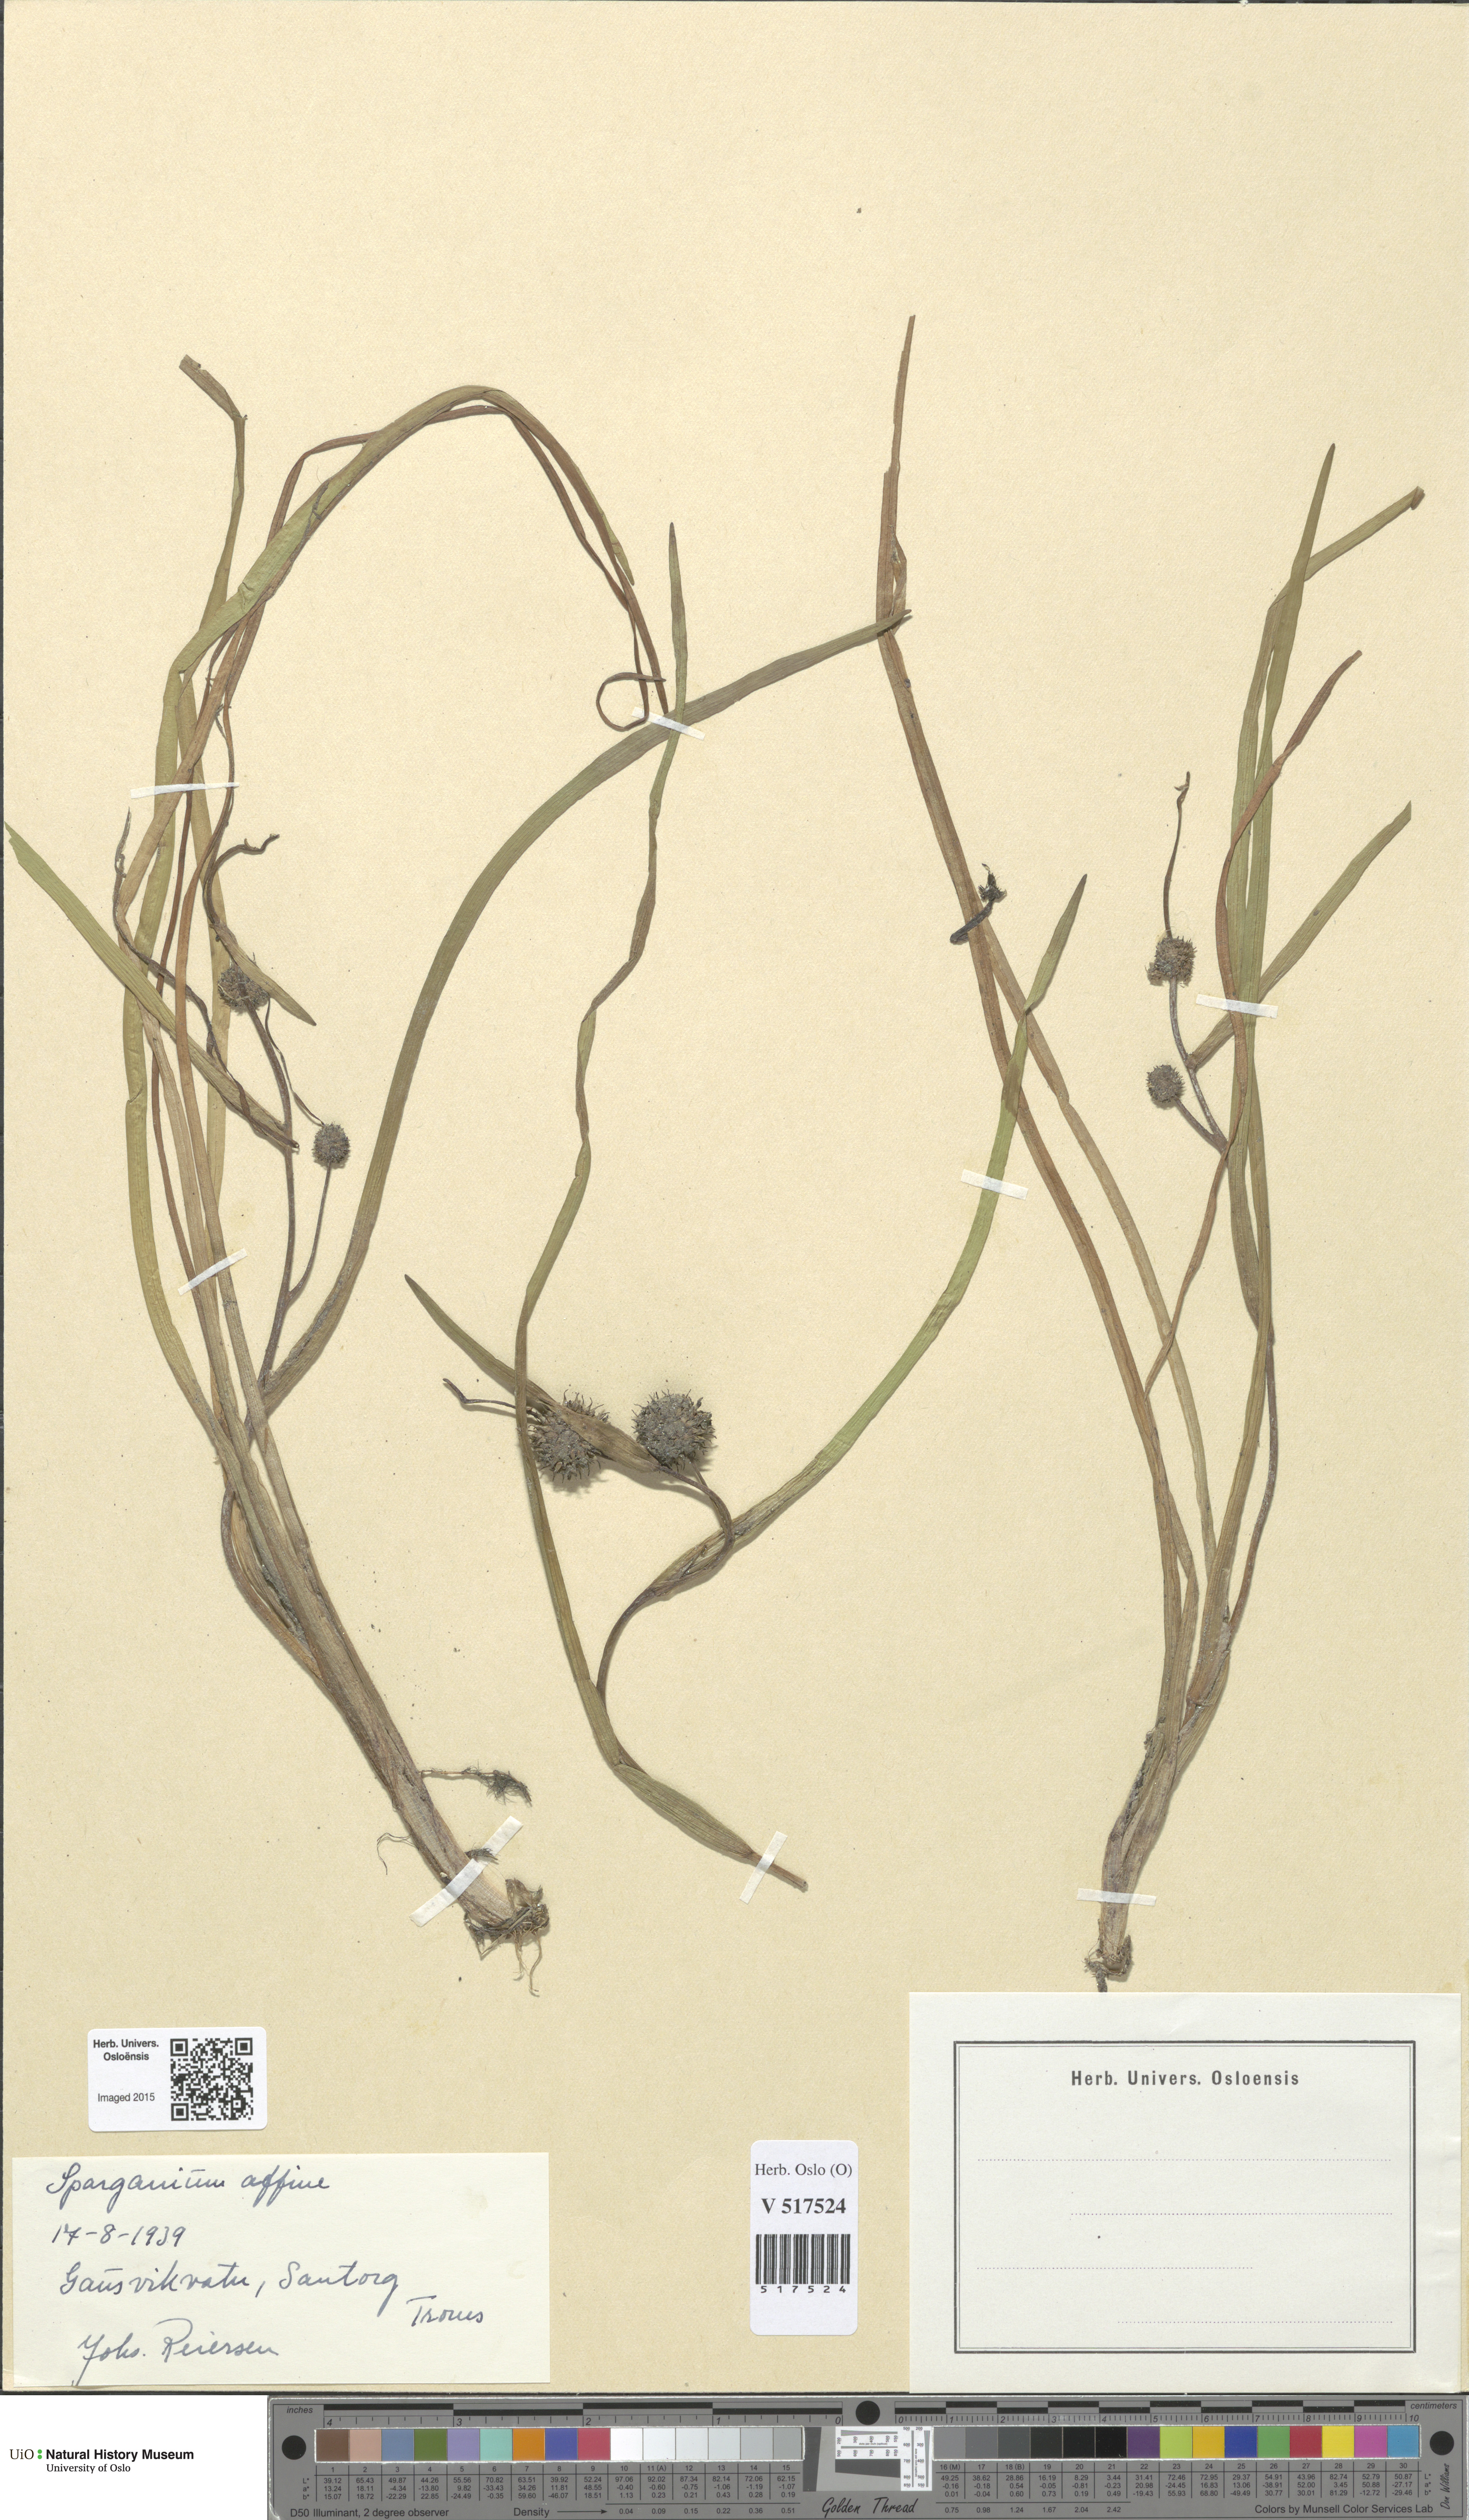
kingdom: Plantae
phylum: Tracheophyta
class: Liliopsida
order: Poales
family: Typhaceae
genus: Sparganium
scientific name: Sparganium angustifolium
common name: Floating bur-reed
